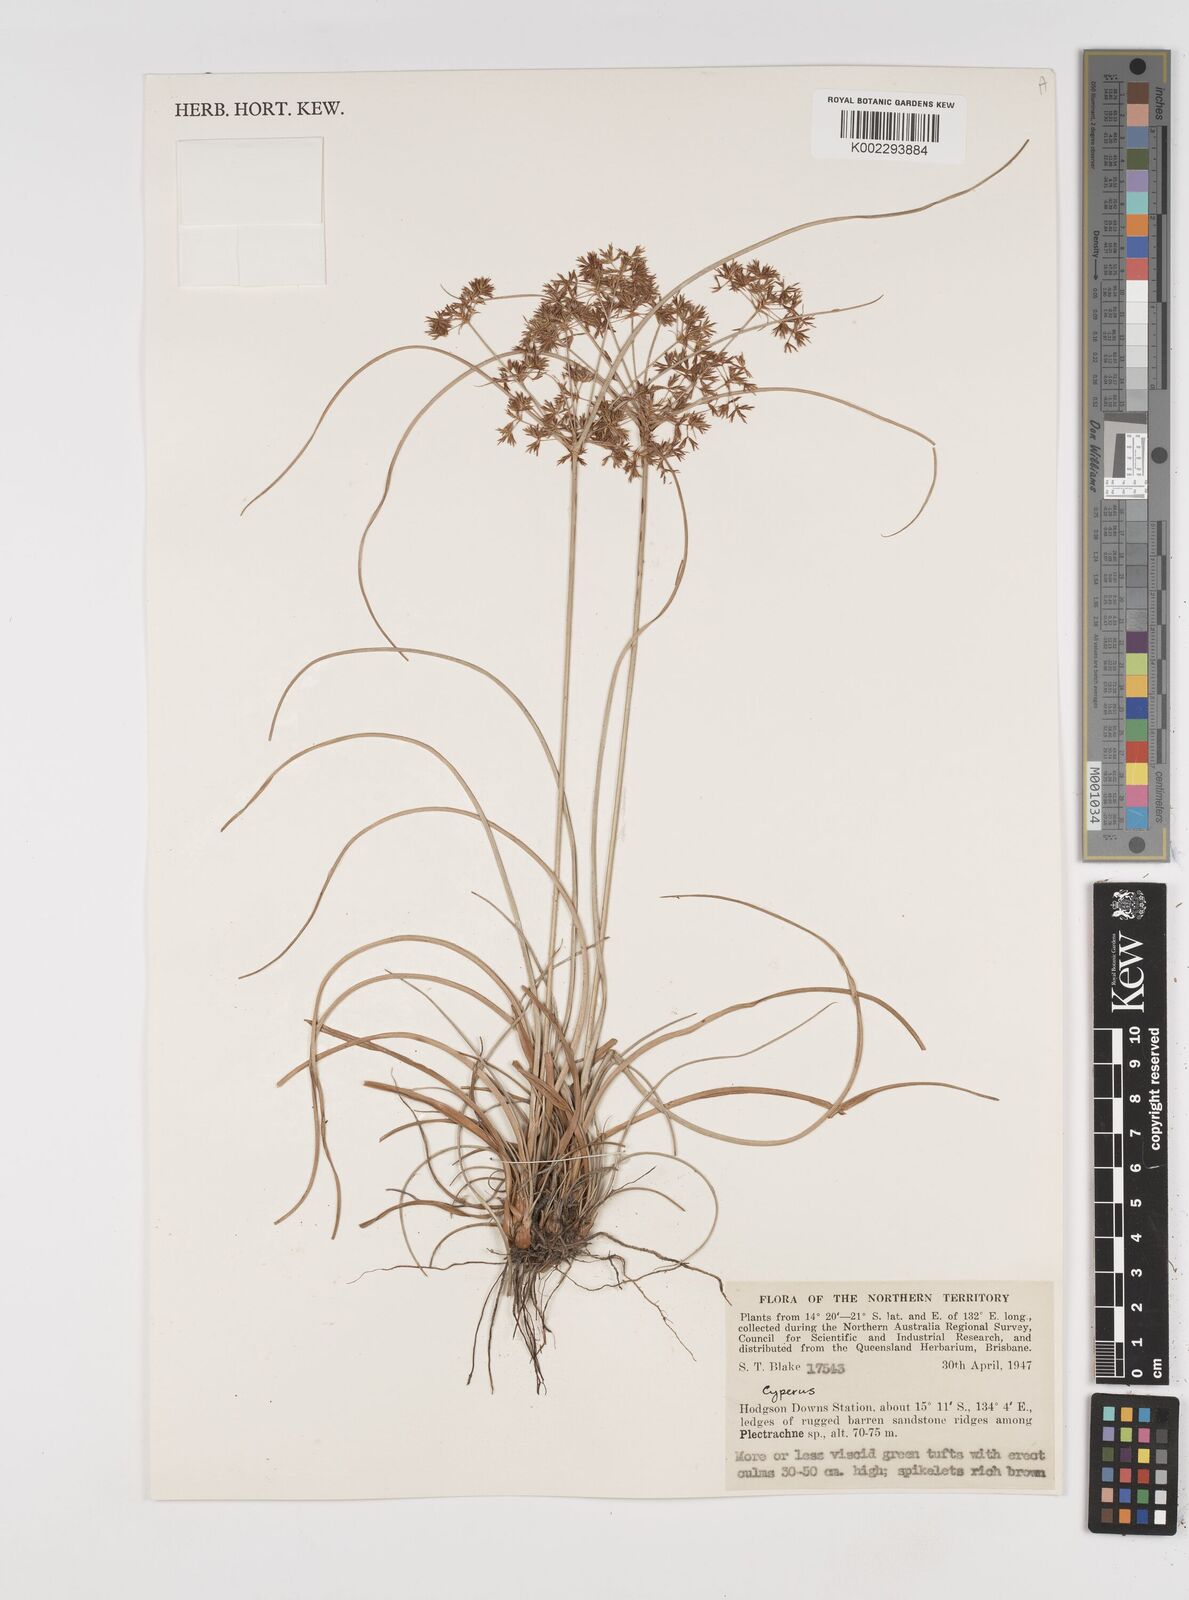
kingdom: Plantae
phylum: Tracheophyta
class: Liliopsida
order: Poales
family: Cyperaceae
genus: Cyperus
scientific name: Cyperus
